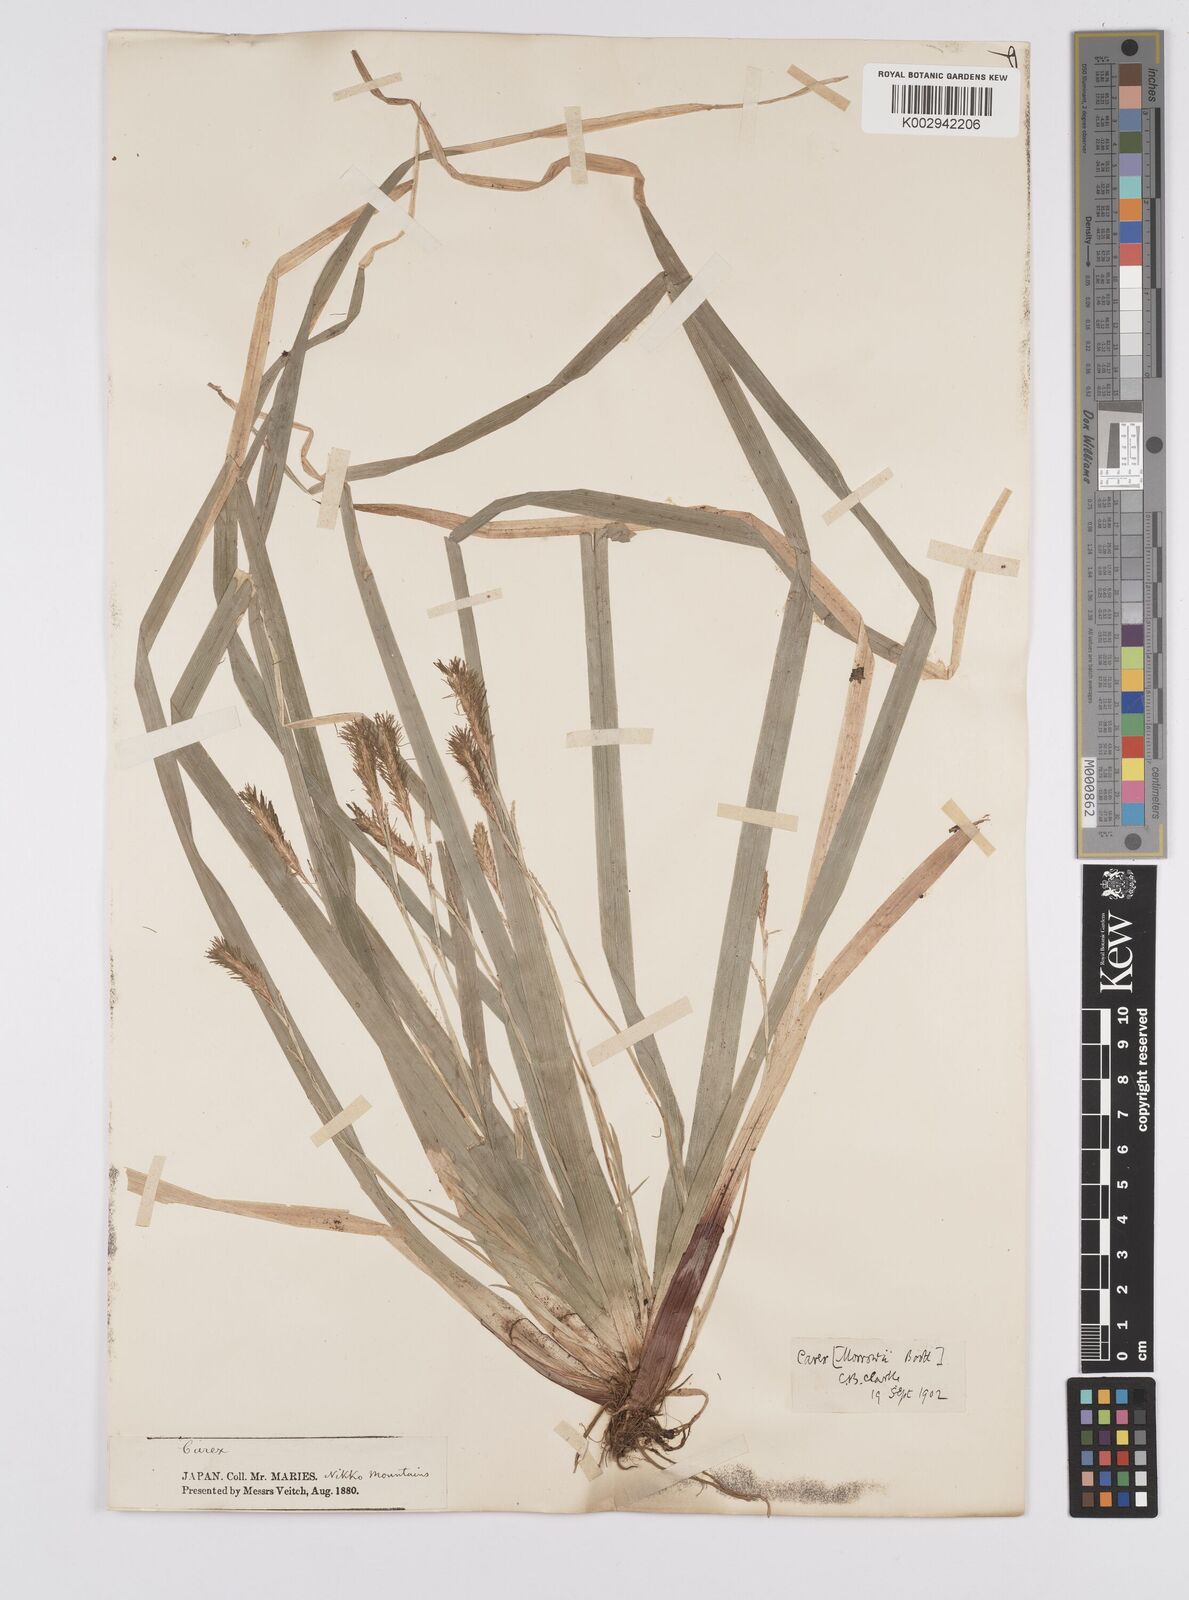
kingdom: Plantae
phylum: Tracheophyta
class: Liliopsida
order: Poales
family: Cyperaceae
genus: Carex
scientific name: Carex morrowii
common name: Japanese sedge
